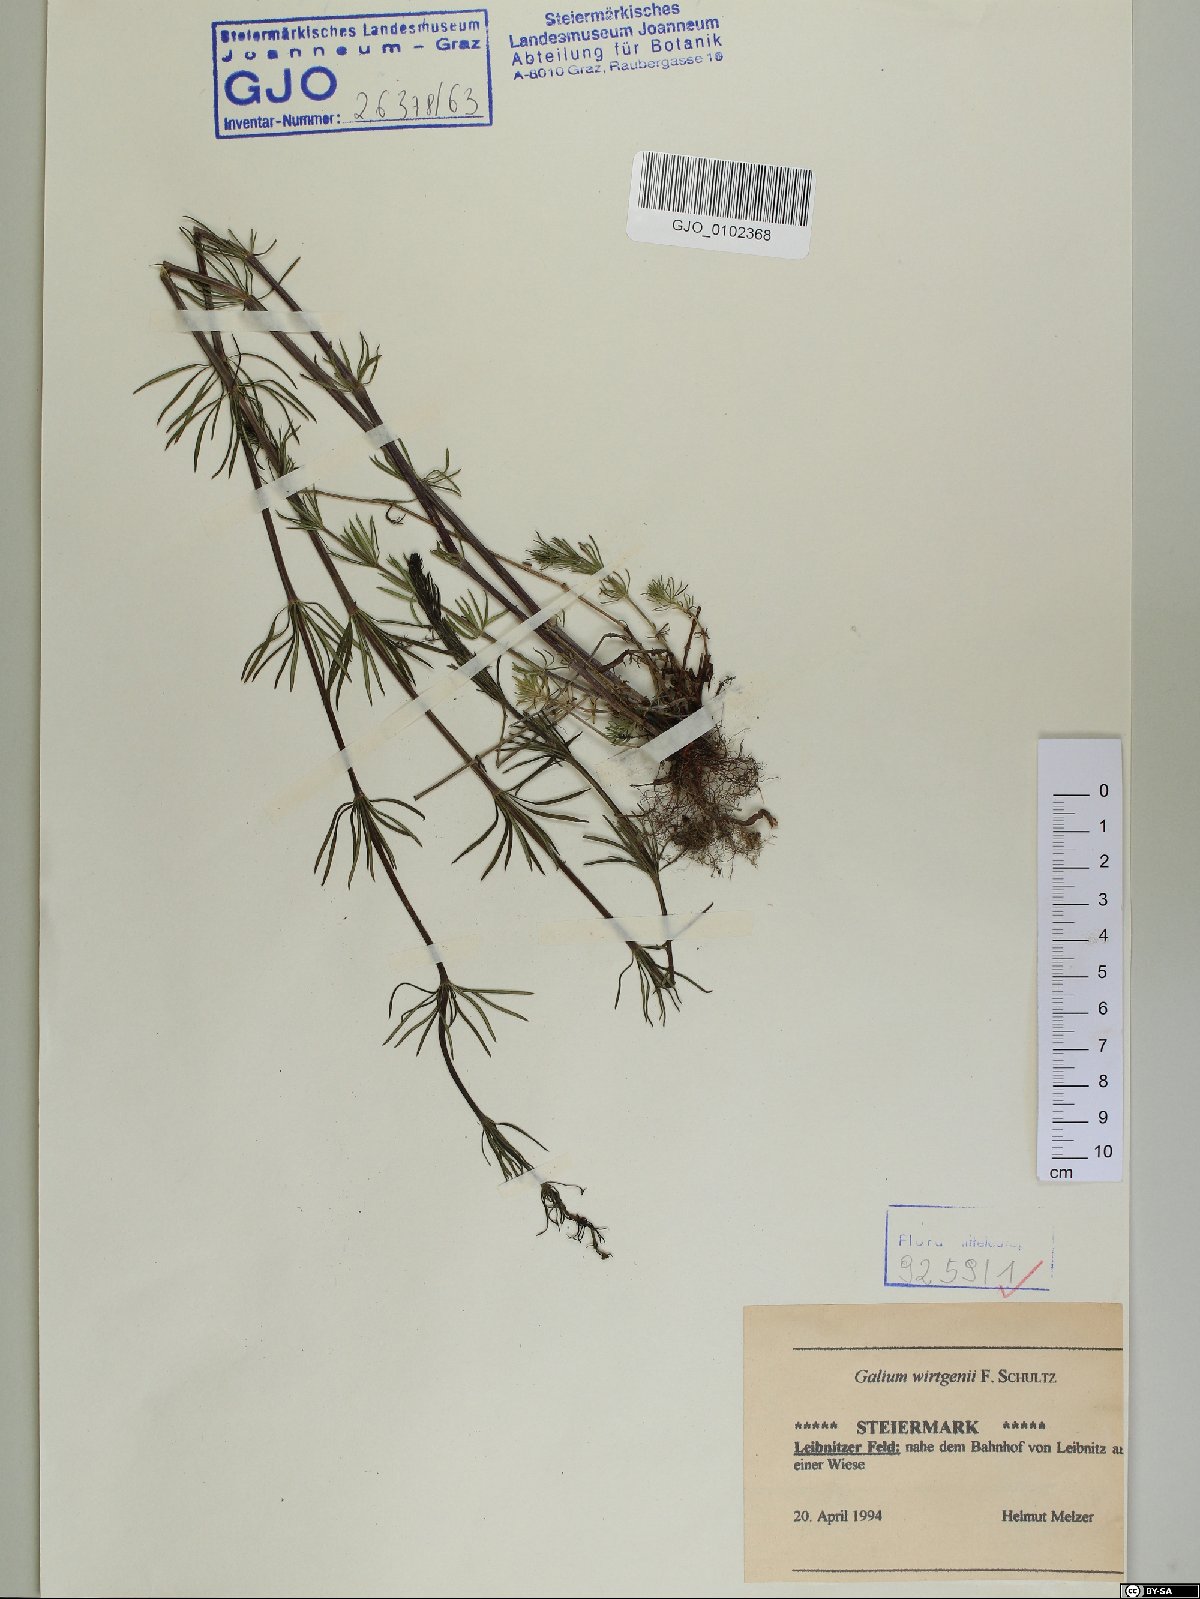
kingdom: Plantae
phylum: Tracheophyta
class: Magnoliopsida
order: Gentianales
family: Rubiaceae
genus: Galium
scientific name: Galium verum
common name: Lady's bedstraw
